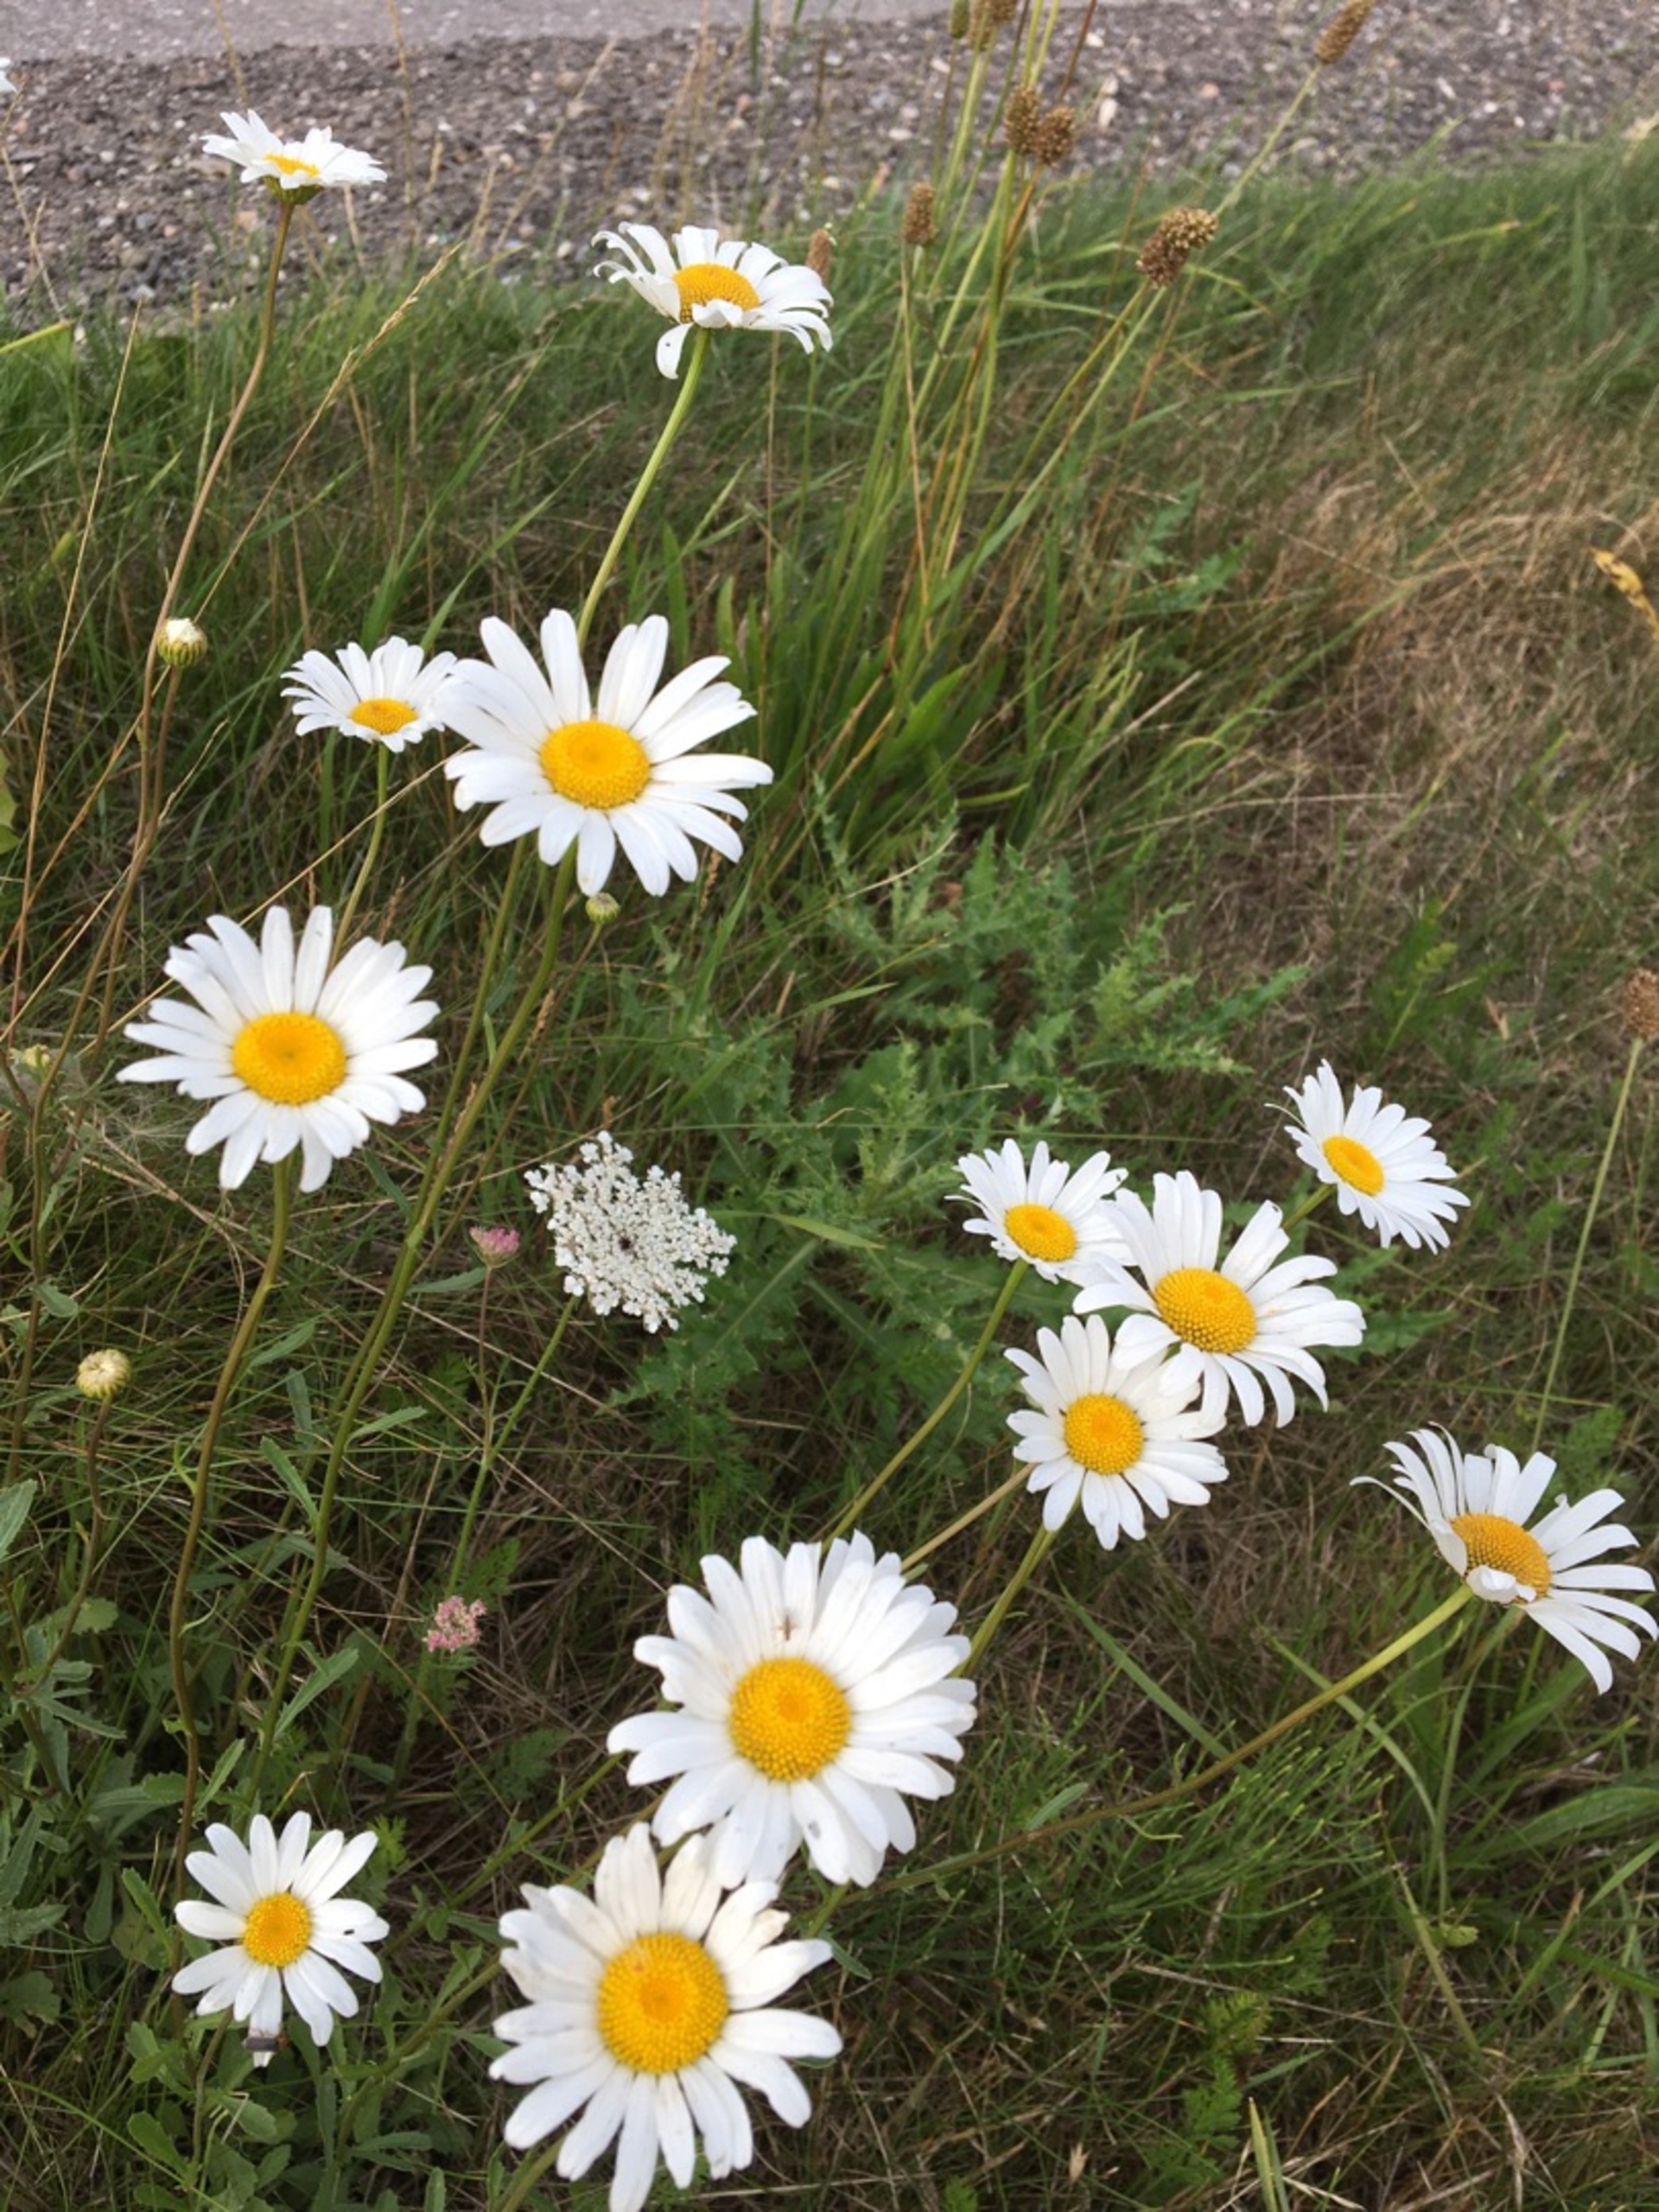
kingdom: Plantae
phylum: Tracheophyta
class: Magnoliopsida
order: Asterales
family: Asteraceae
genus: Leucanthemum
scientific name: Leucanthemum vulgare
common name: Hvid okseøje
